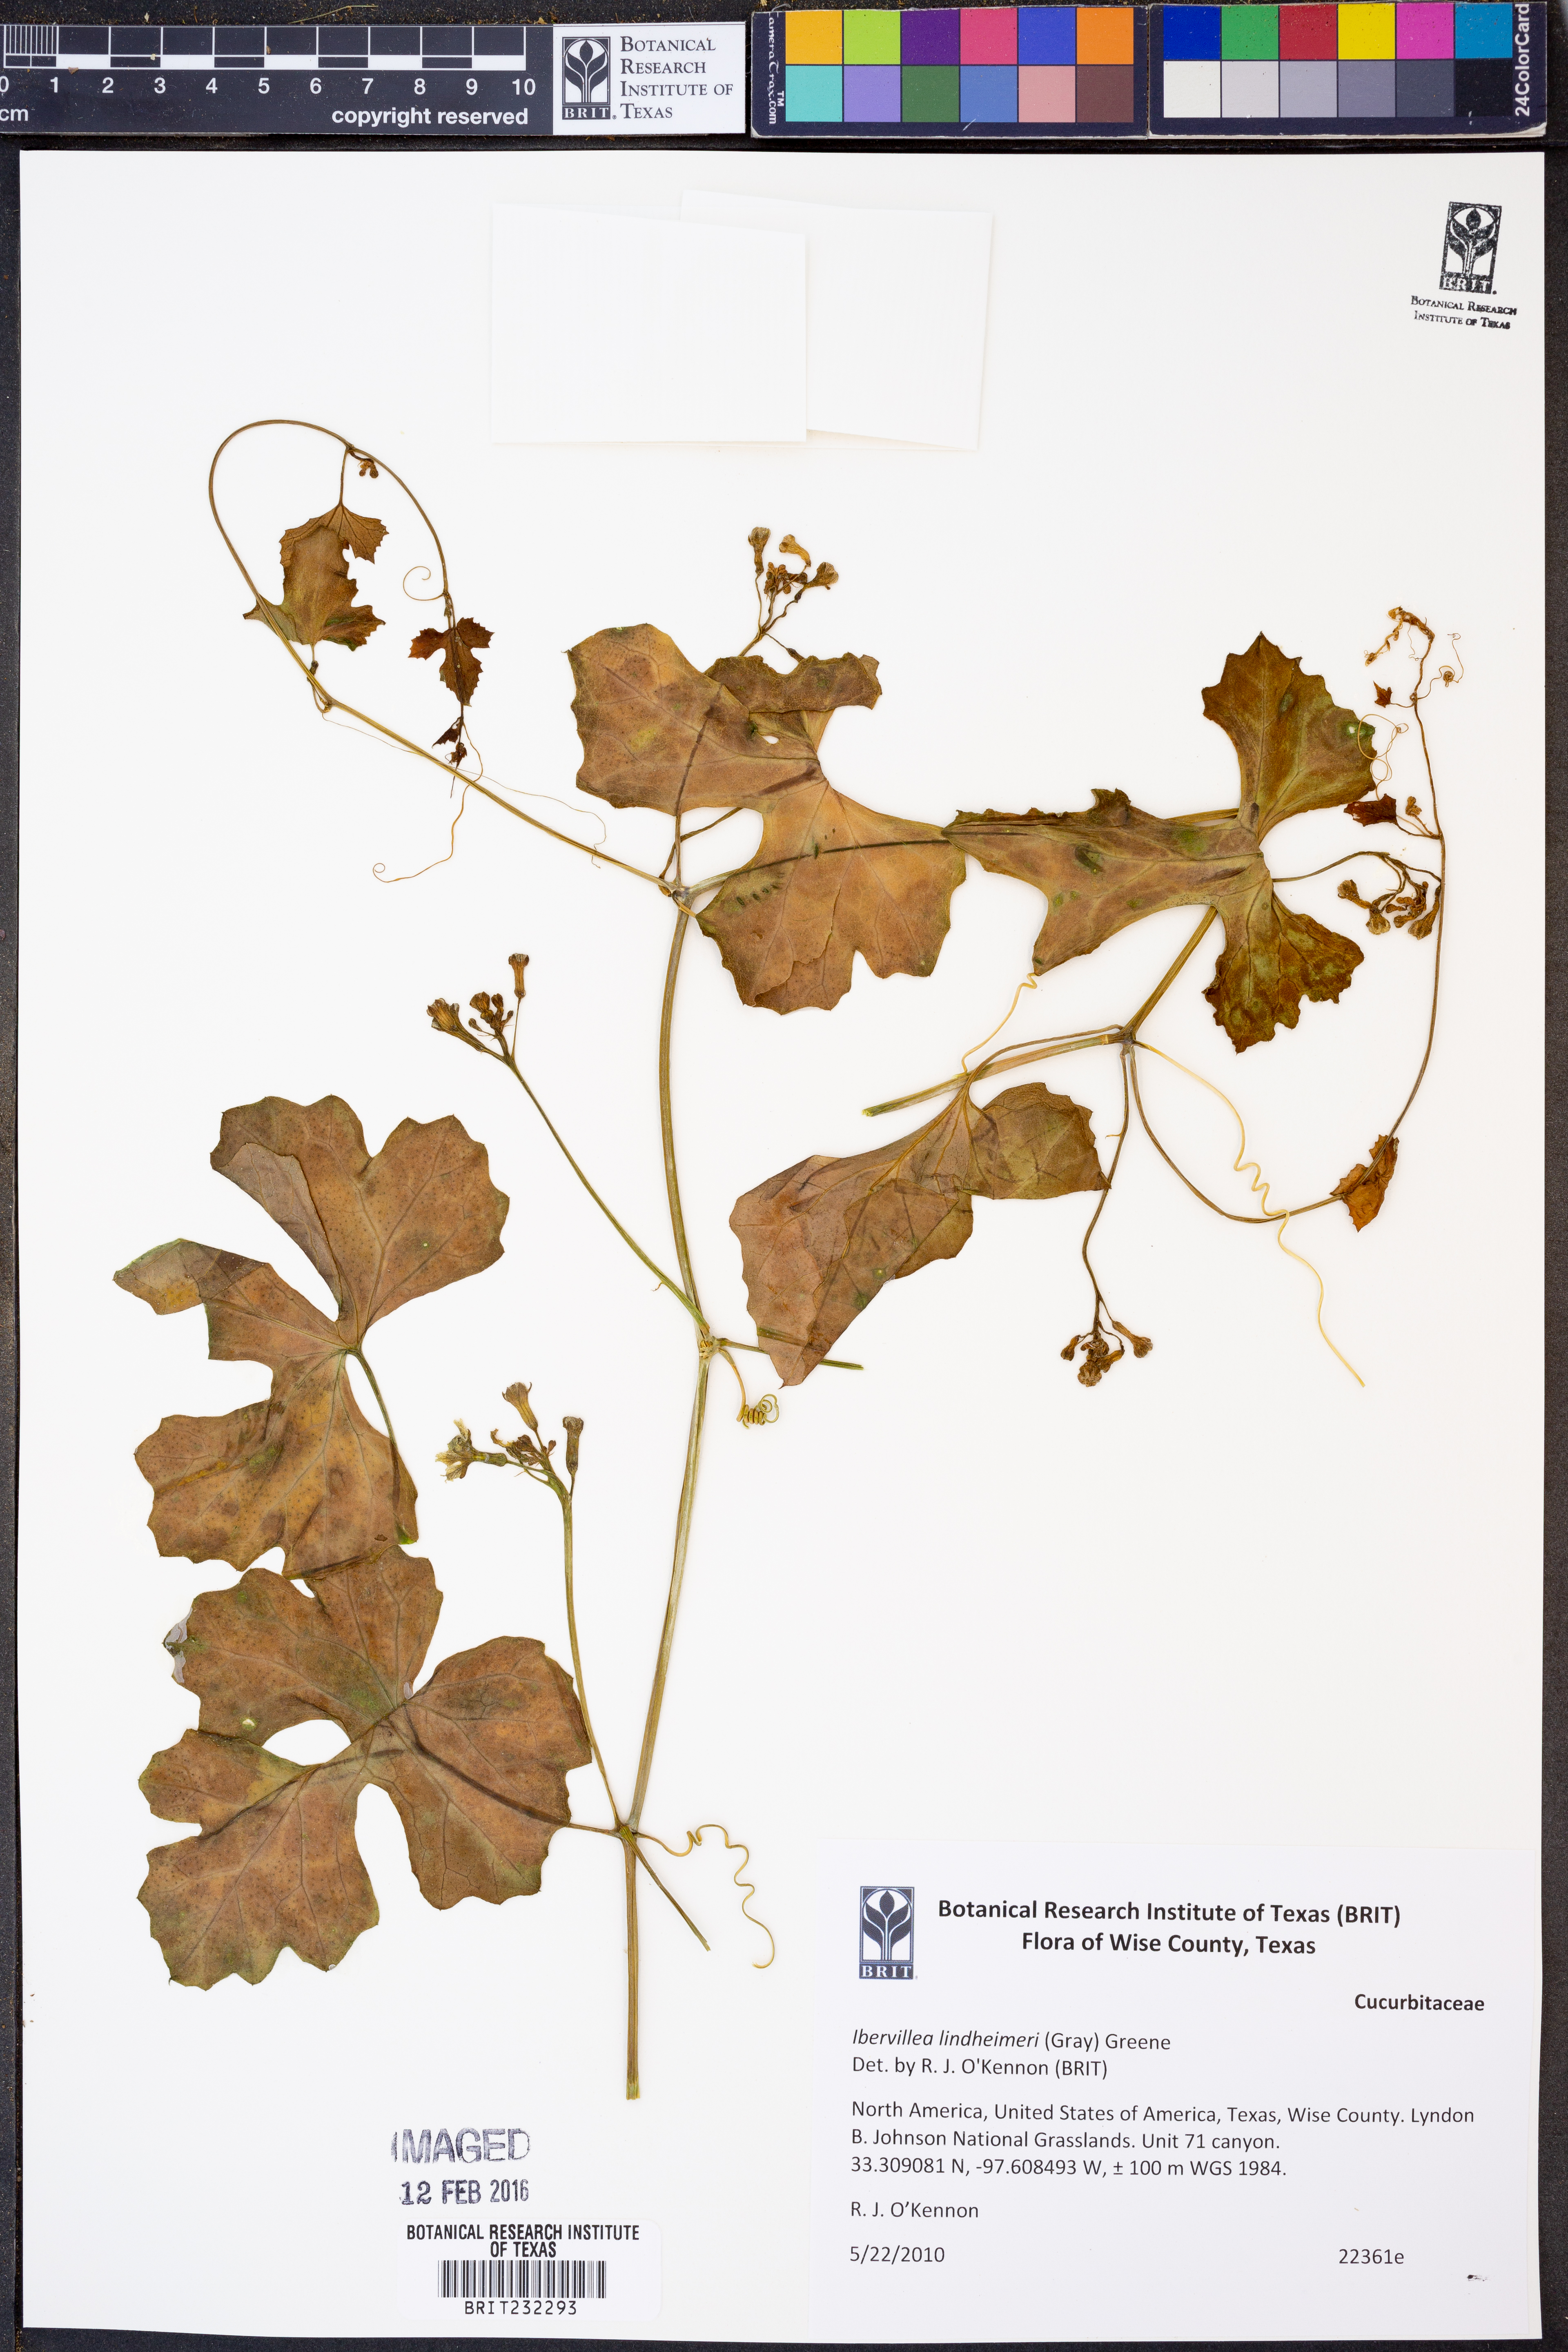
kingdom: Plantae
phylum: Tracheophyta
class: Magnoliopsida
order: Cucurbitales
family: Cucurbitaceae
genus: Ibervillea
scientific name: Ibervillea lindheimeri
